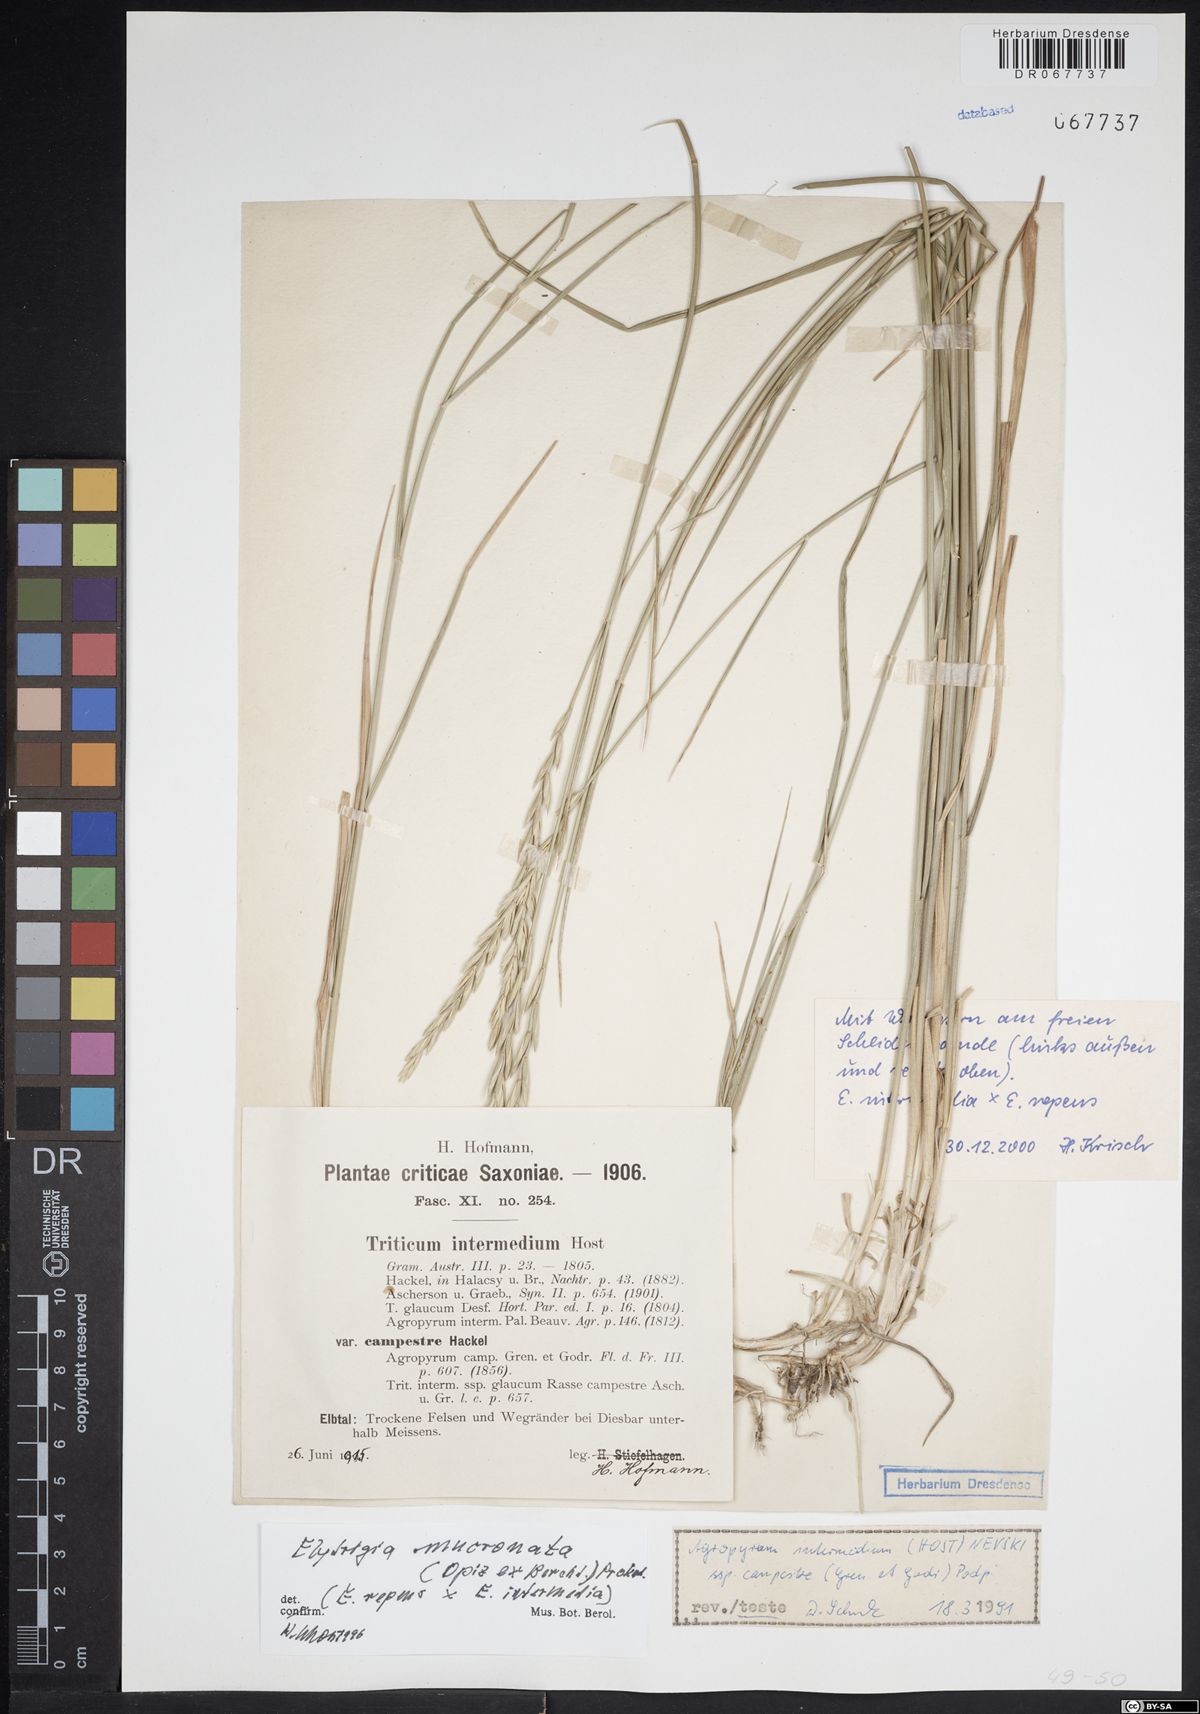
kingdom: Plantae
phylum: Tracheophyta
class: Liliopsida
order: Poales
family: Poaceae
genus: Thinoelymus
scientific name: Thinoelymus mucronatus
